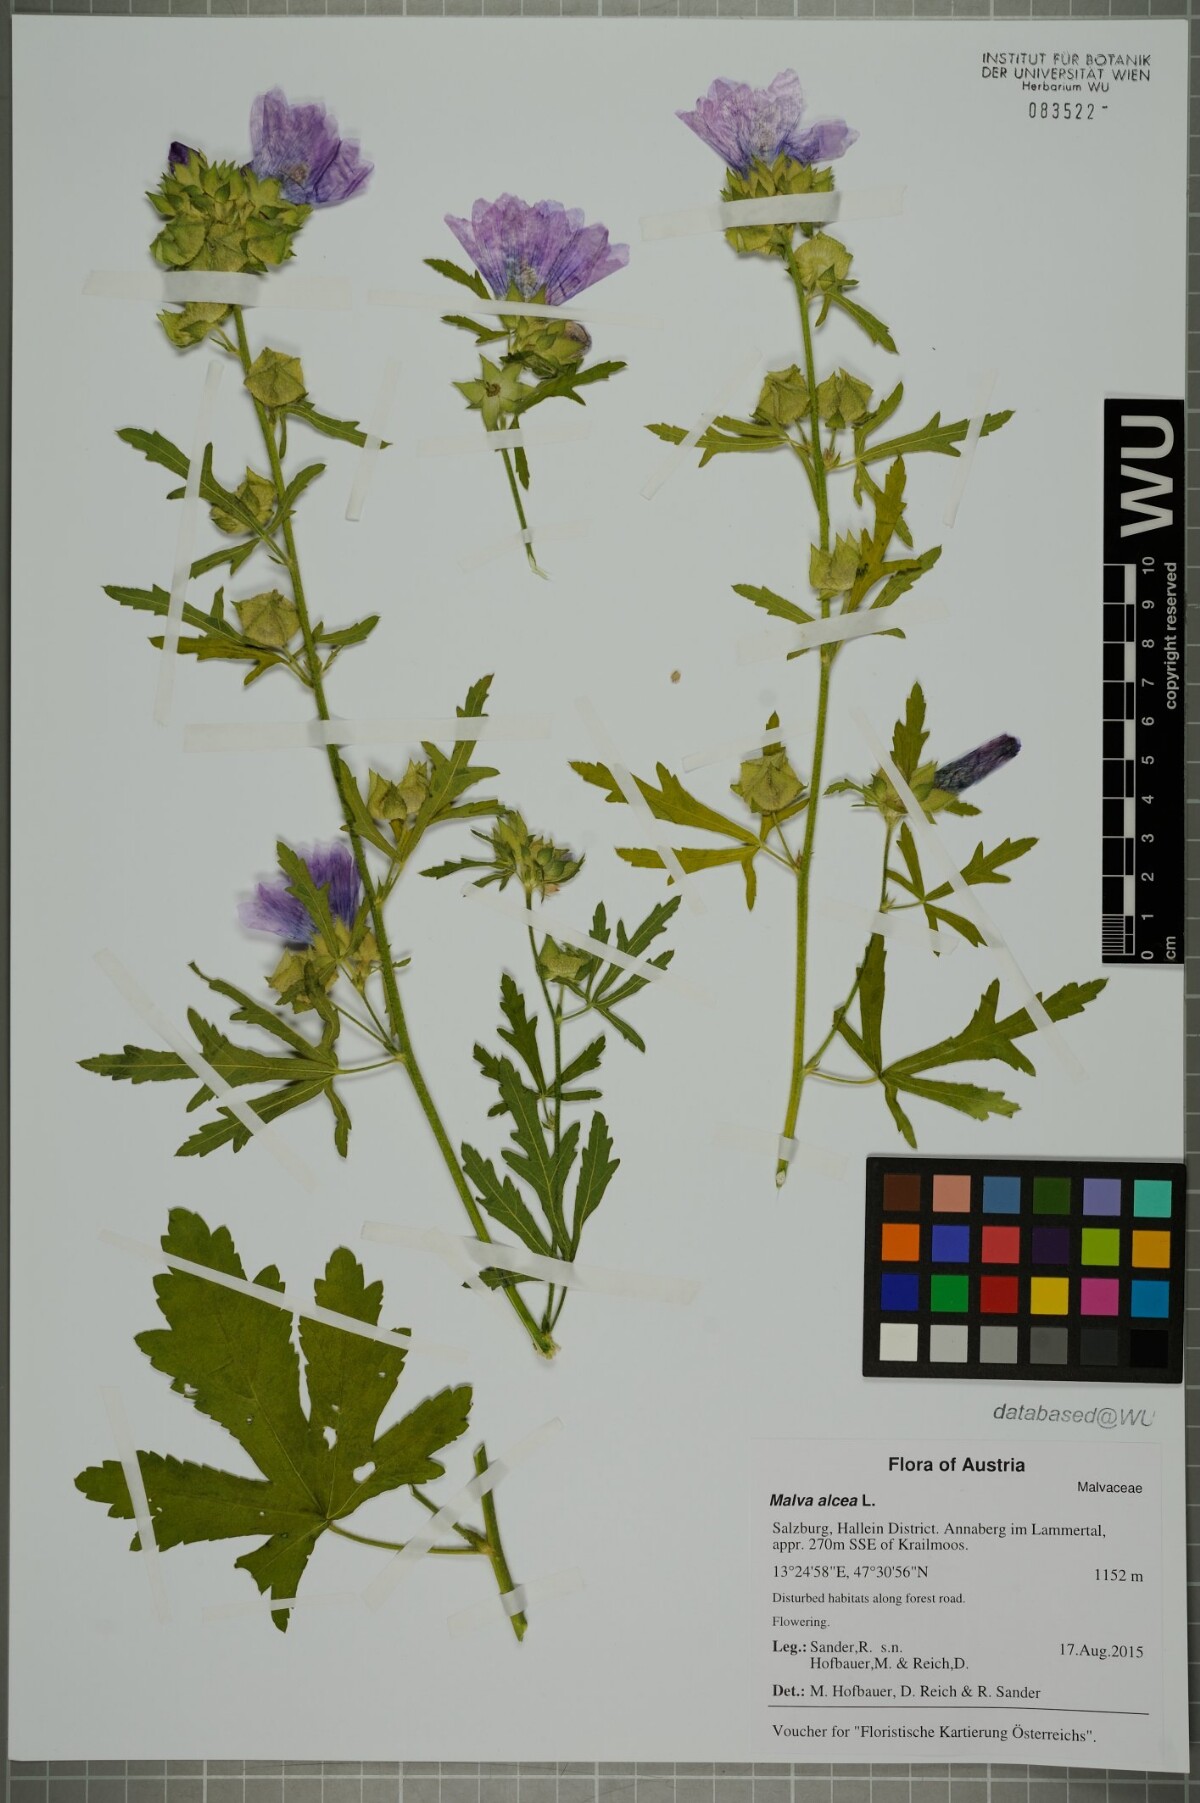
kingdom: Plantae
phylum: Tracheophyta
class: Magnoliopsida
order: Malvales
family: Malvaceae
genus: Malva
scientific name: Malva alcea
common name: Greater musk-mallow
